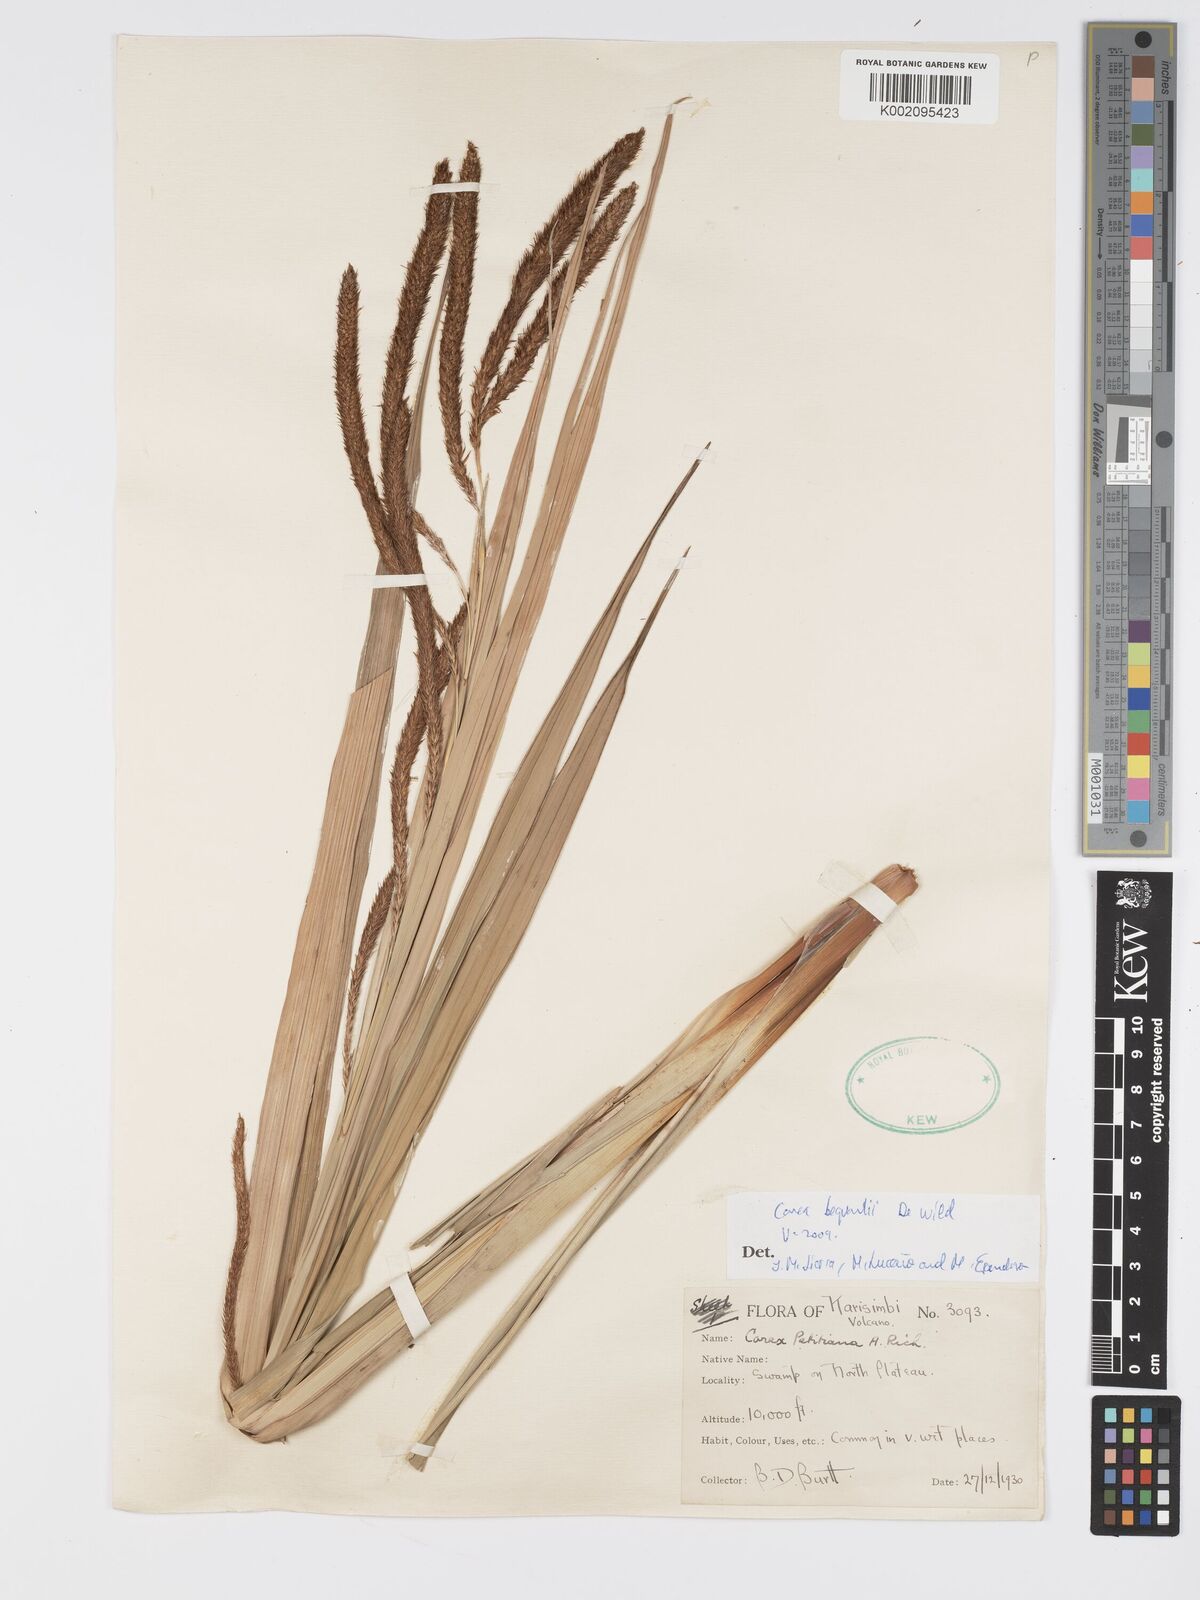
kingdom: Plantae
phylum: Tracheophyta
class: Liliopsida
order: Poales
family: Cyperaceae
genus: Carex
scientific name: Carex bequaertii
